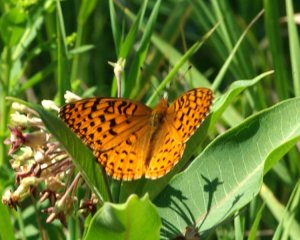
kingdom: Animalia
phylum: Arthropoda
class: Insecta
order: Lepidoptera
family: Nymphalidae
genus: Speyeria
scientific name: Speyeria aphrodite
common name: Aphrodite Fritillary
